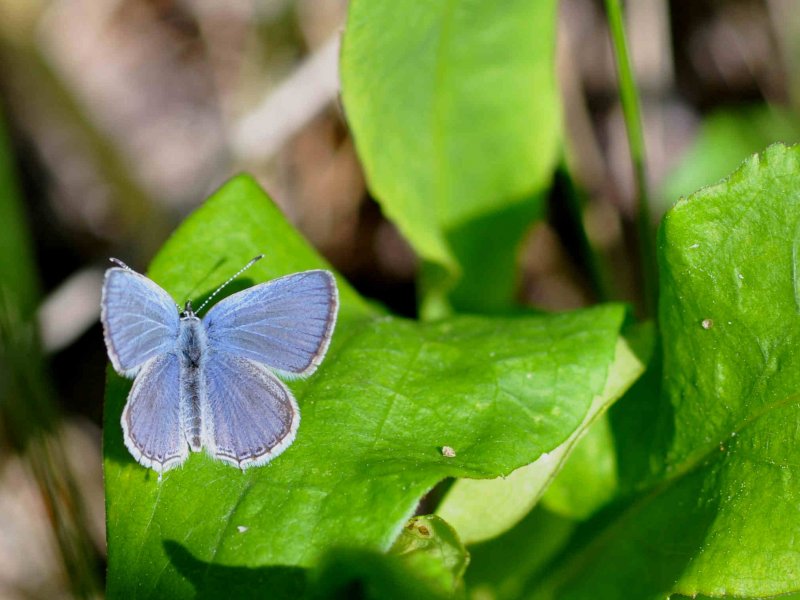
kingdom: Animalia
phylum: Arthropoda
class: Insecta
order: Lepidoptera
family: Lycaenidae
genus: Elkalyce
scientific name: Elkalyce amyntula
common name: Western Tailed-Blue
